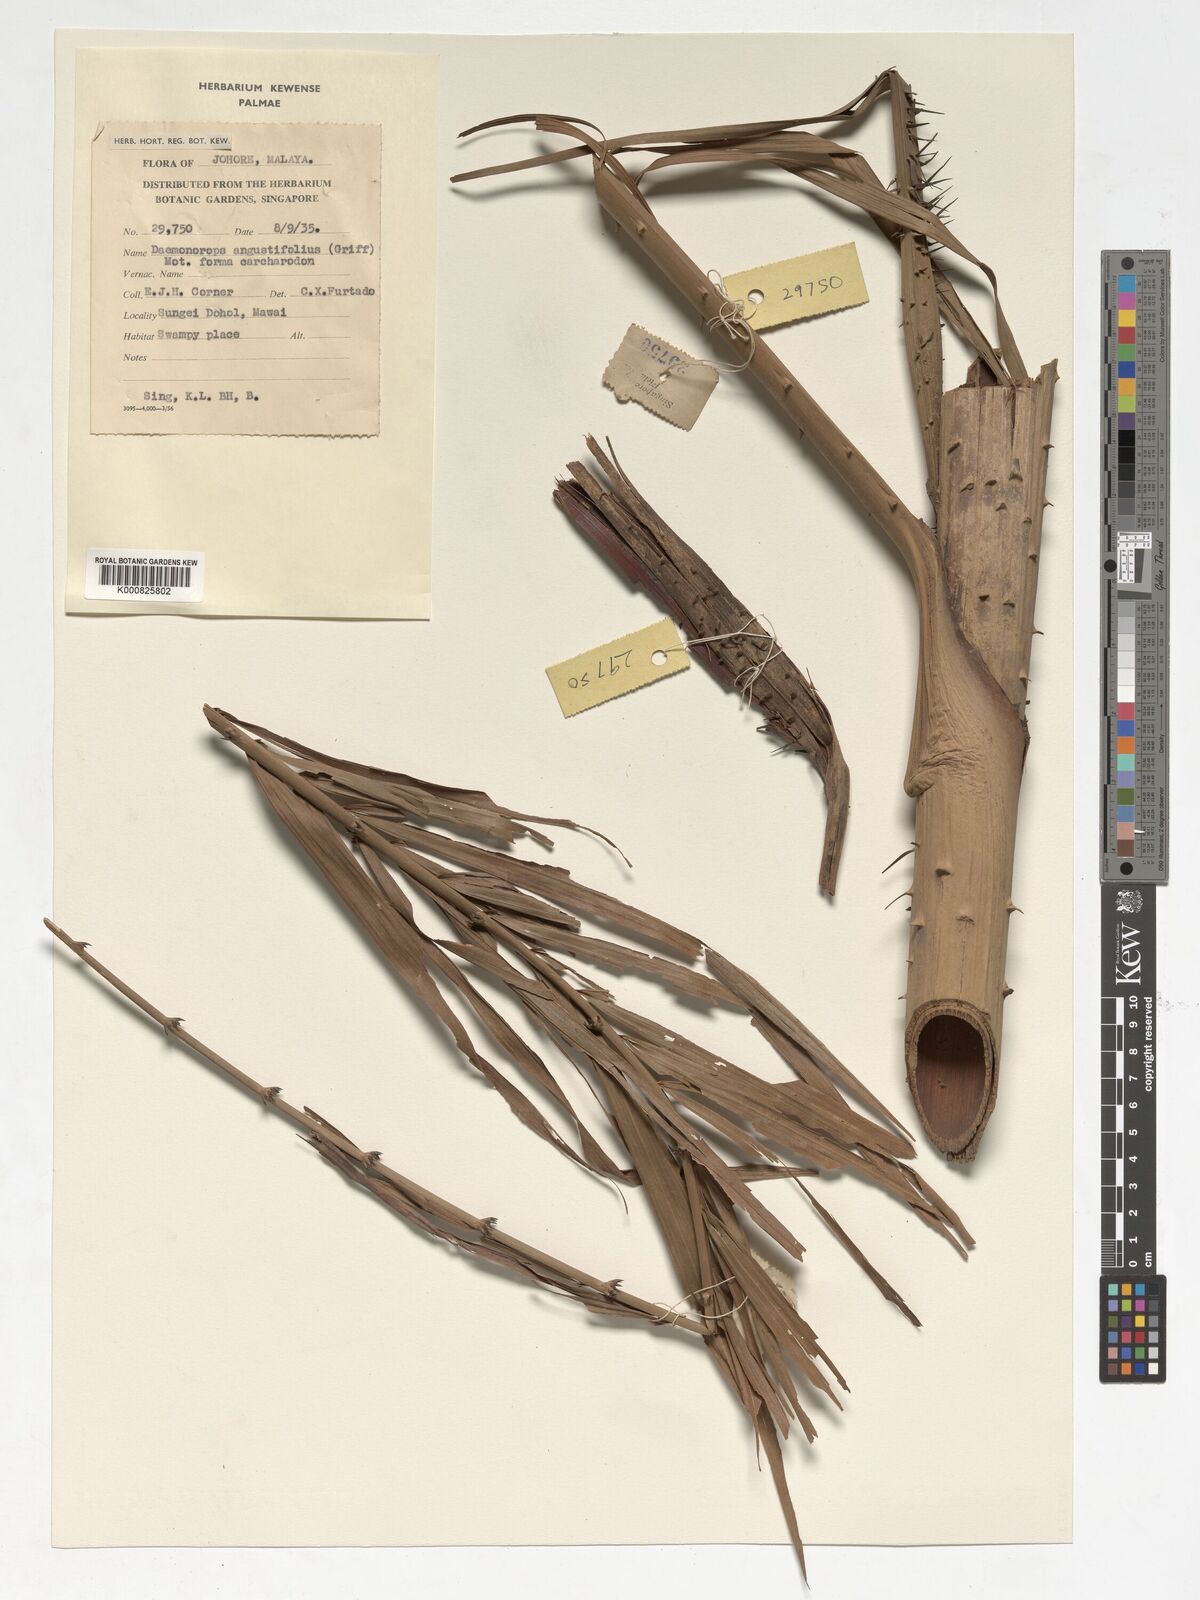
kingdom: Plantae
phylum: Tracheophyta
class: Liliopsida
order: Arecales
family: Arecaceae
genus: Calamus
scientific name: Calamus melanochaetes
